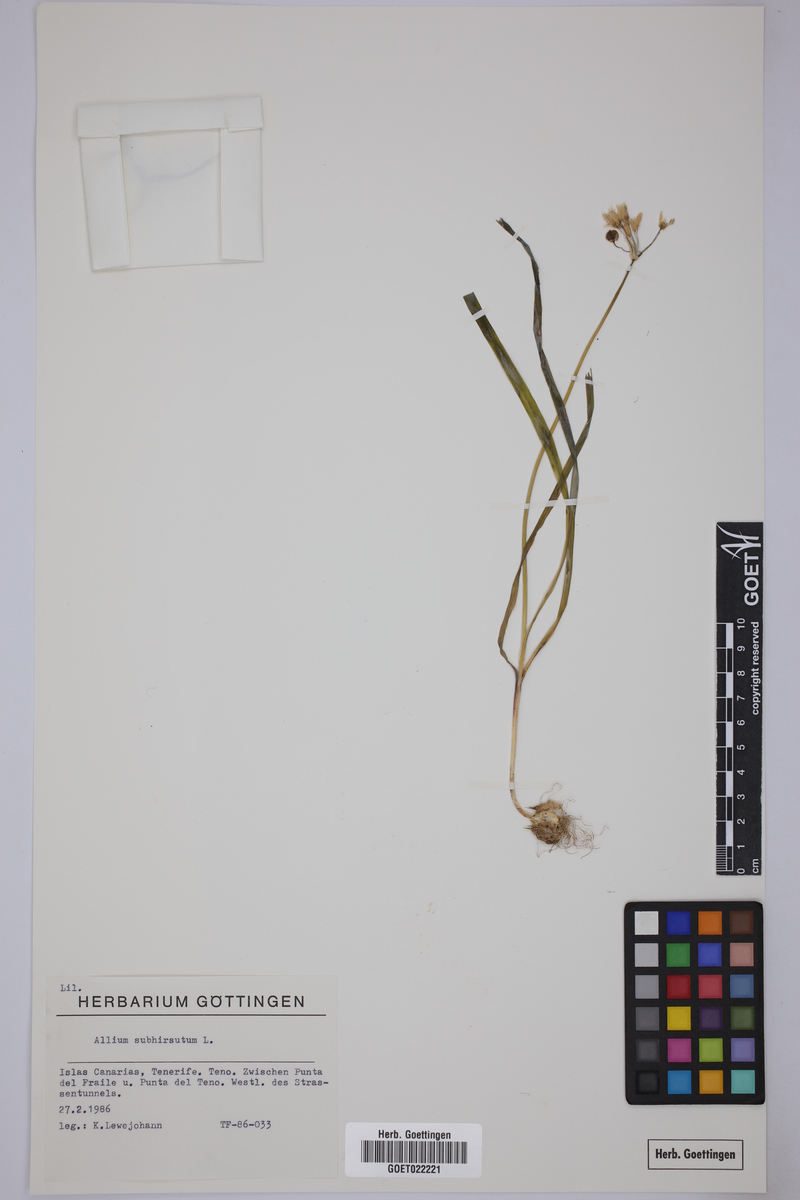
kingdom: Plantae
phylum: Tracheophyta
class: Liliopsida
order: Asparagales
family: Amaryllidaceae
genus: Allium
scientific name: Allium subhirsutum
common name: Hairy garlic
